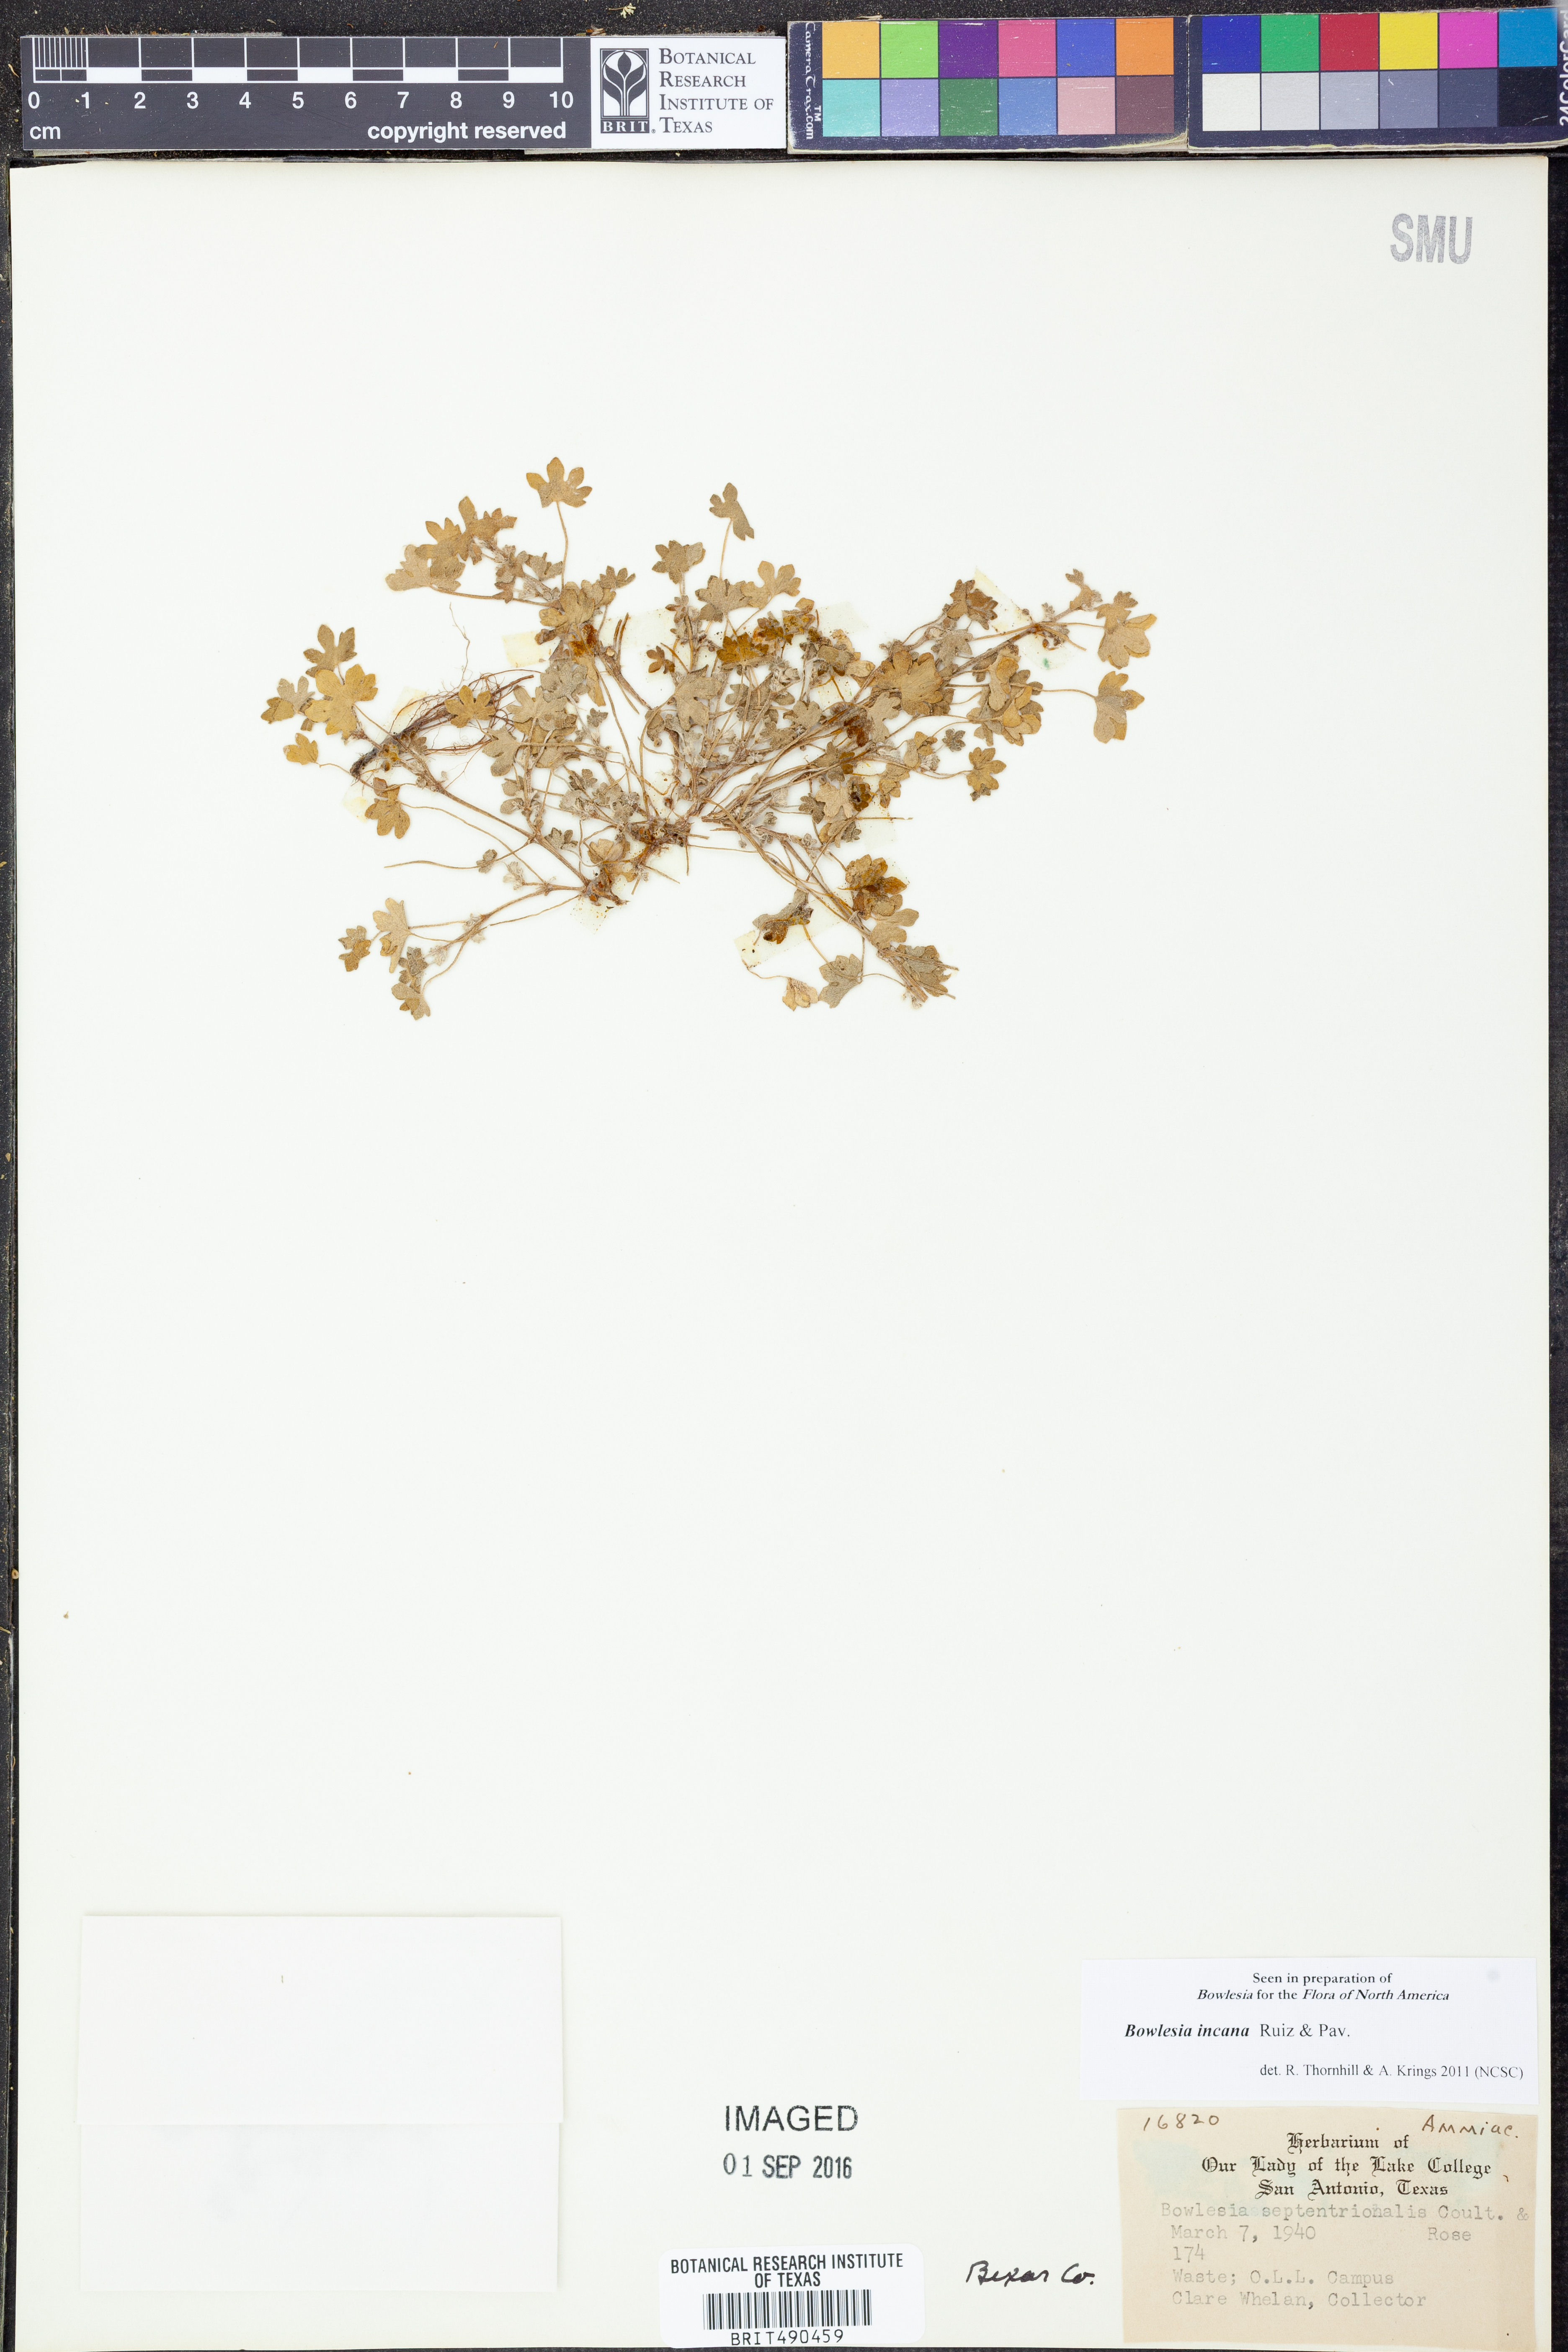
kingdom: Plantae
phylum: Tracheophyta
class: Magnoliopsida
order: Apiales
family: Apiaceae
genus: Bowlesia
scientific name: Bowlesia incana
